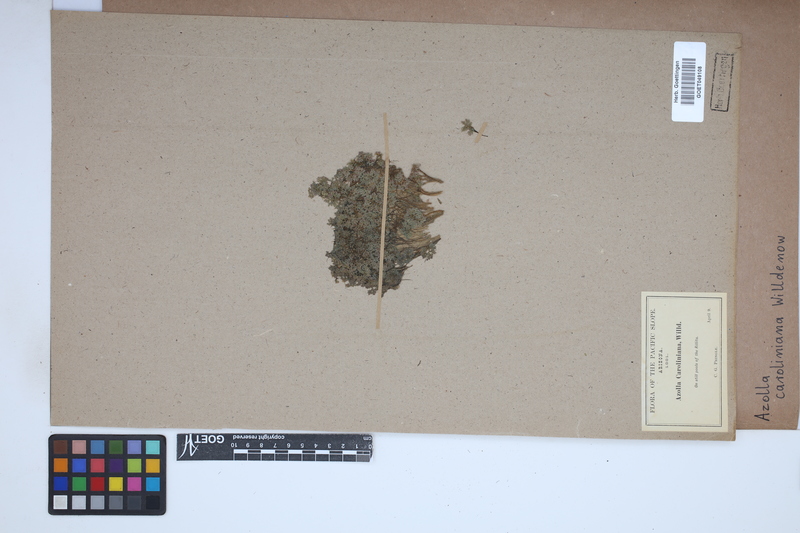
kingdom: Plantae
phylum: Tracheophyta
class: Polypodiopsida
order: Salviniales
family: Salviniaceae
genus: Azolla
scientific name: Azolla caroliniana
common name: Carolina mosquitofern
